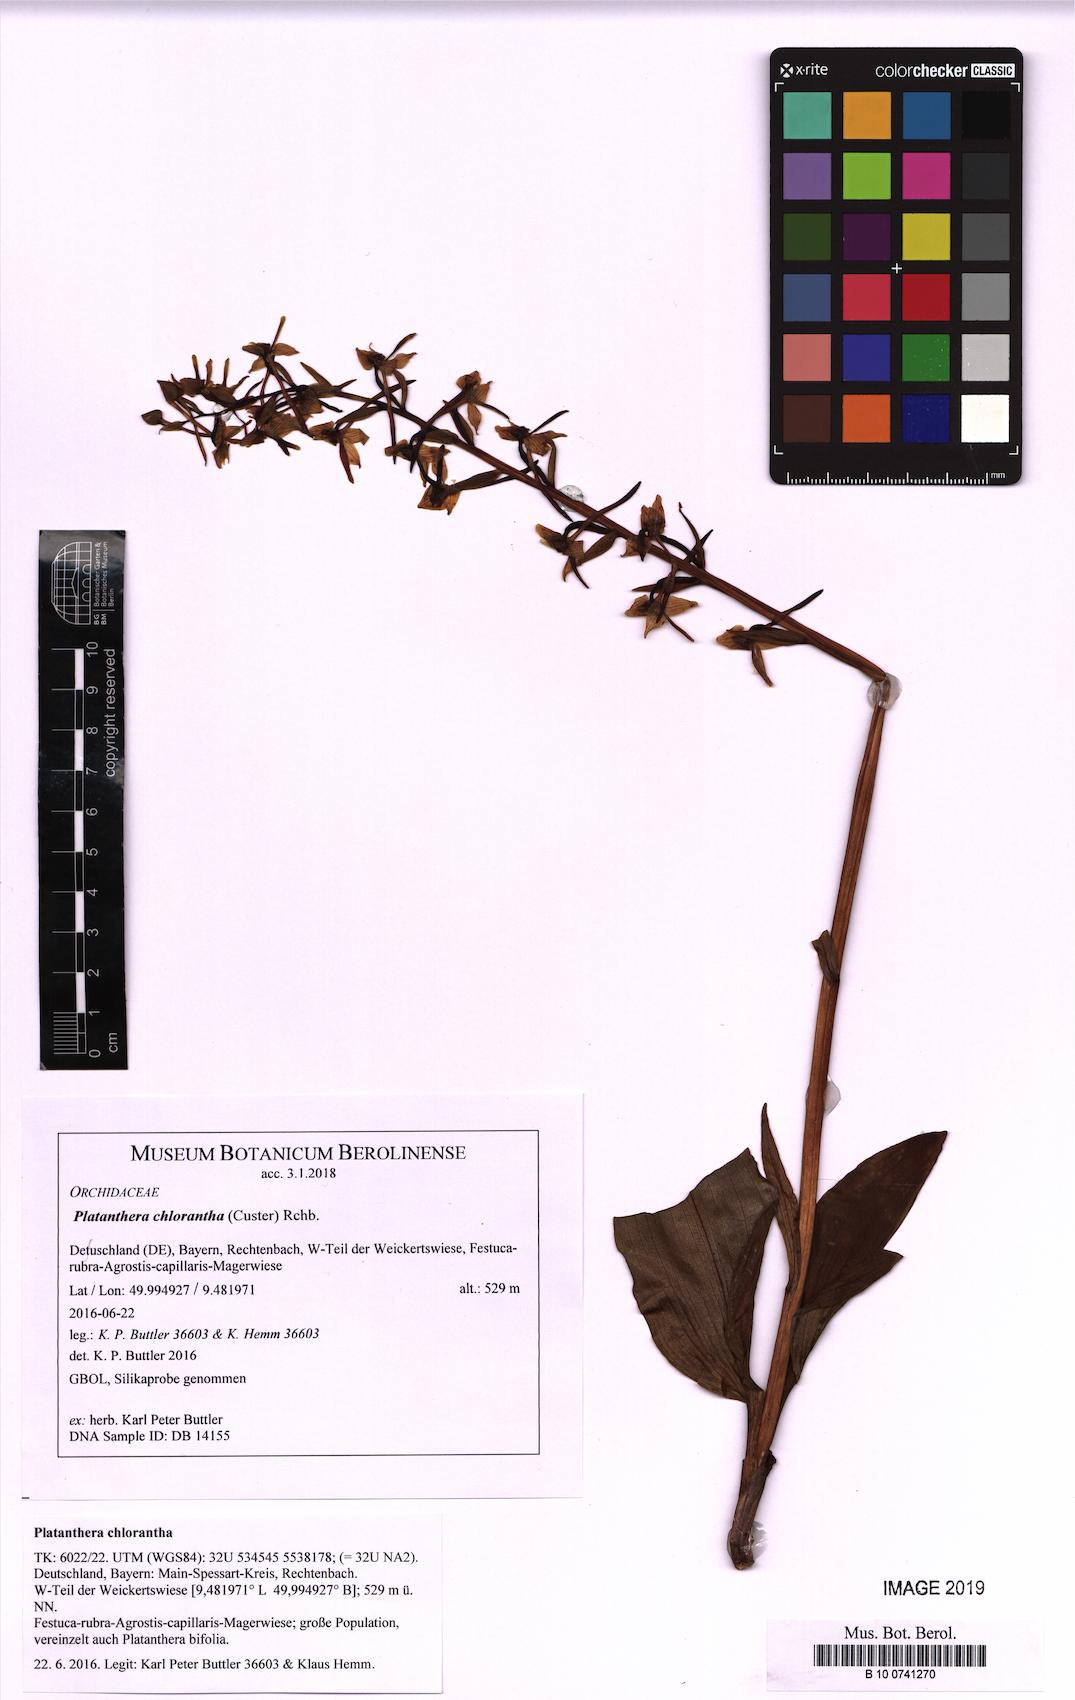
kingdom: Plantae
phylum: Tracheophyta
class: Liliopsida
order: Asparagales
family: Orchidaceae
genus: Platanthera
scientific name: Platanthera chlorantha
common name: Greater butterfly-orchid
